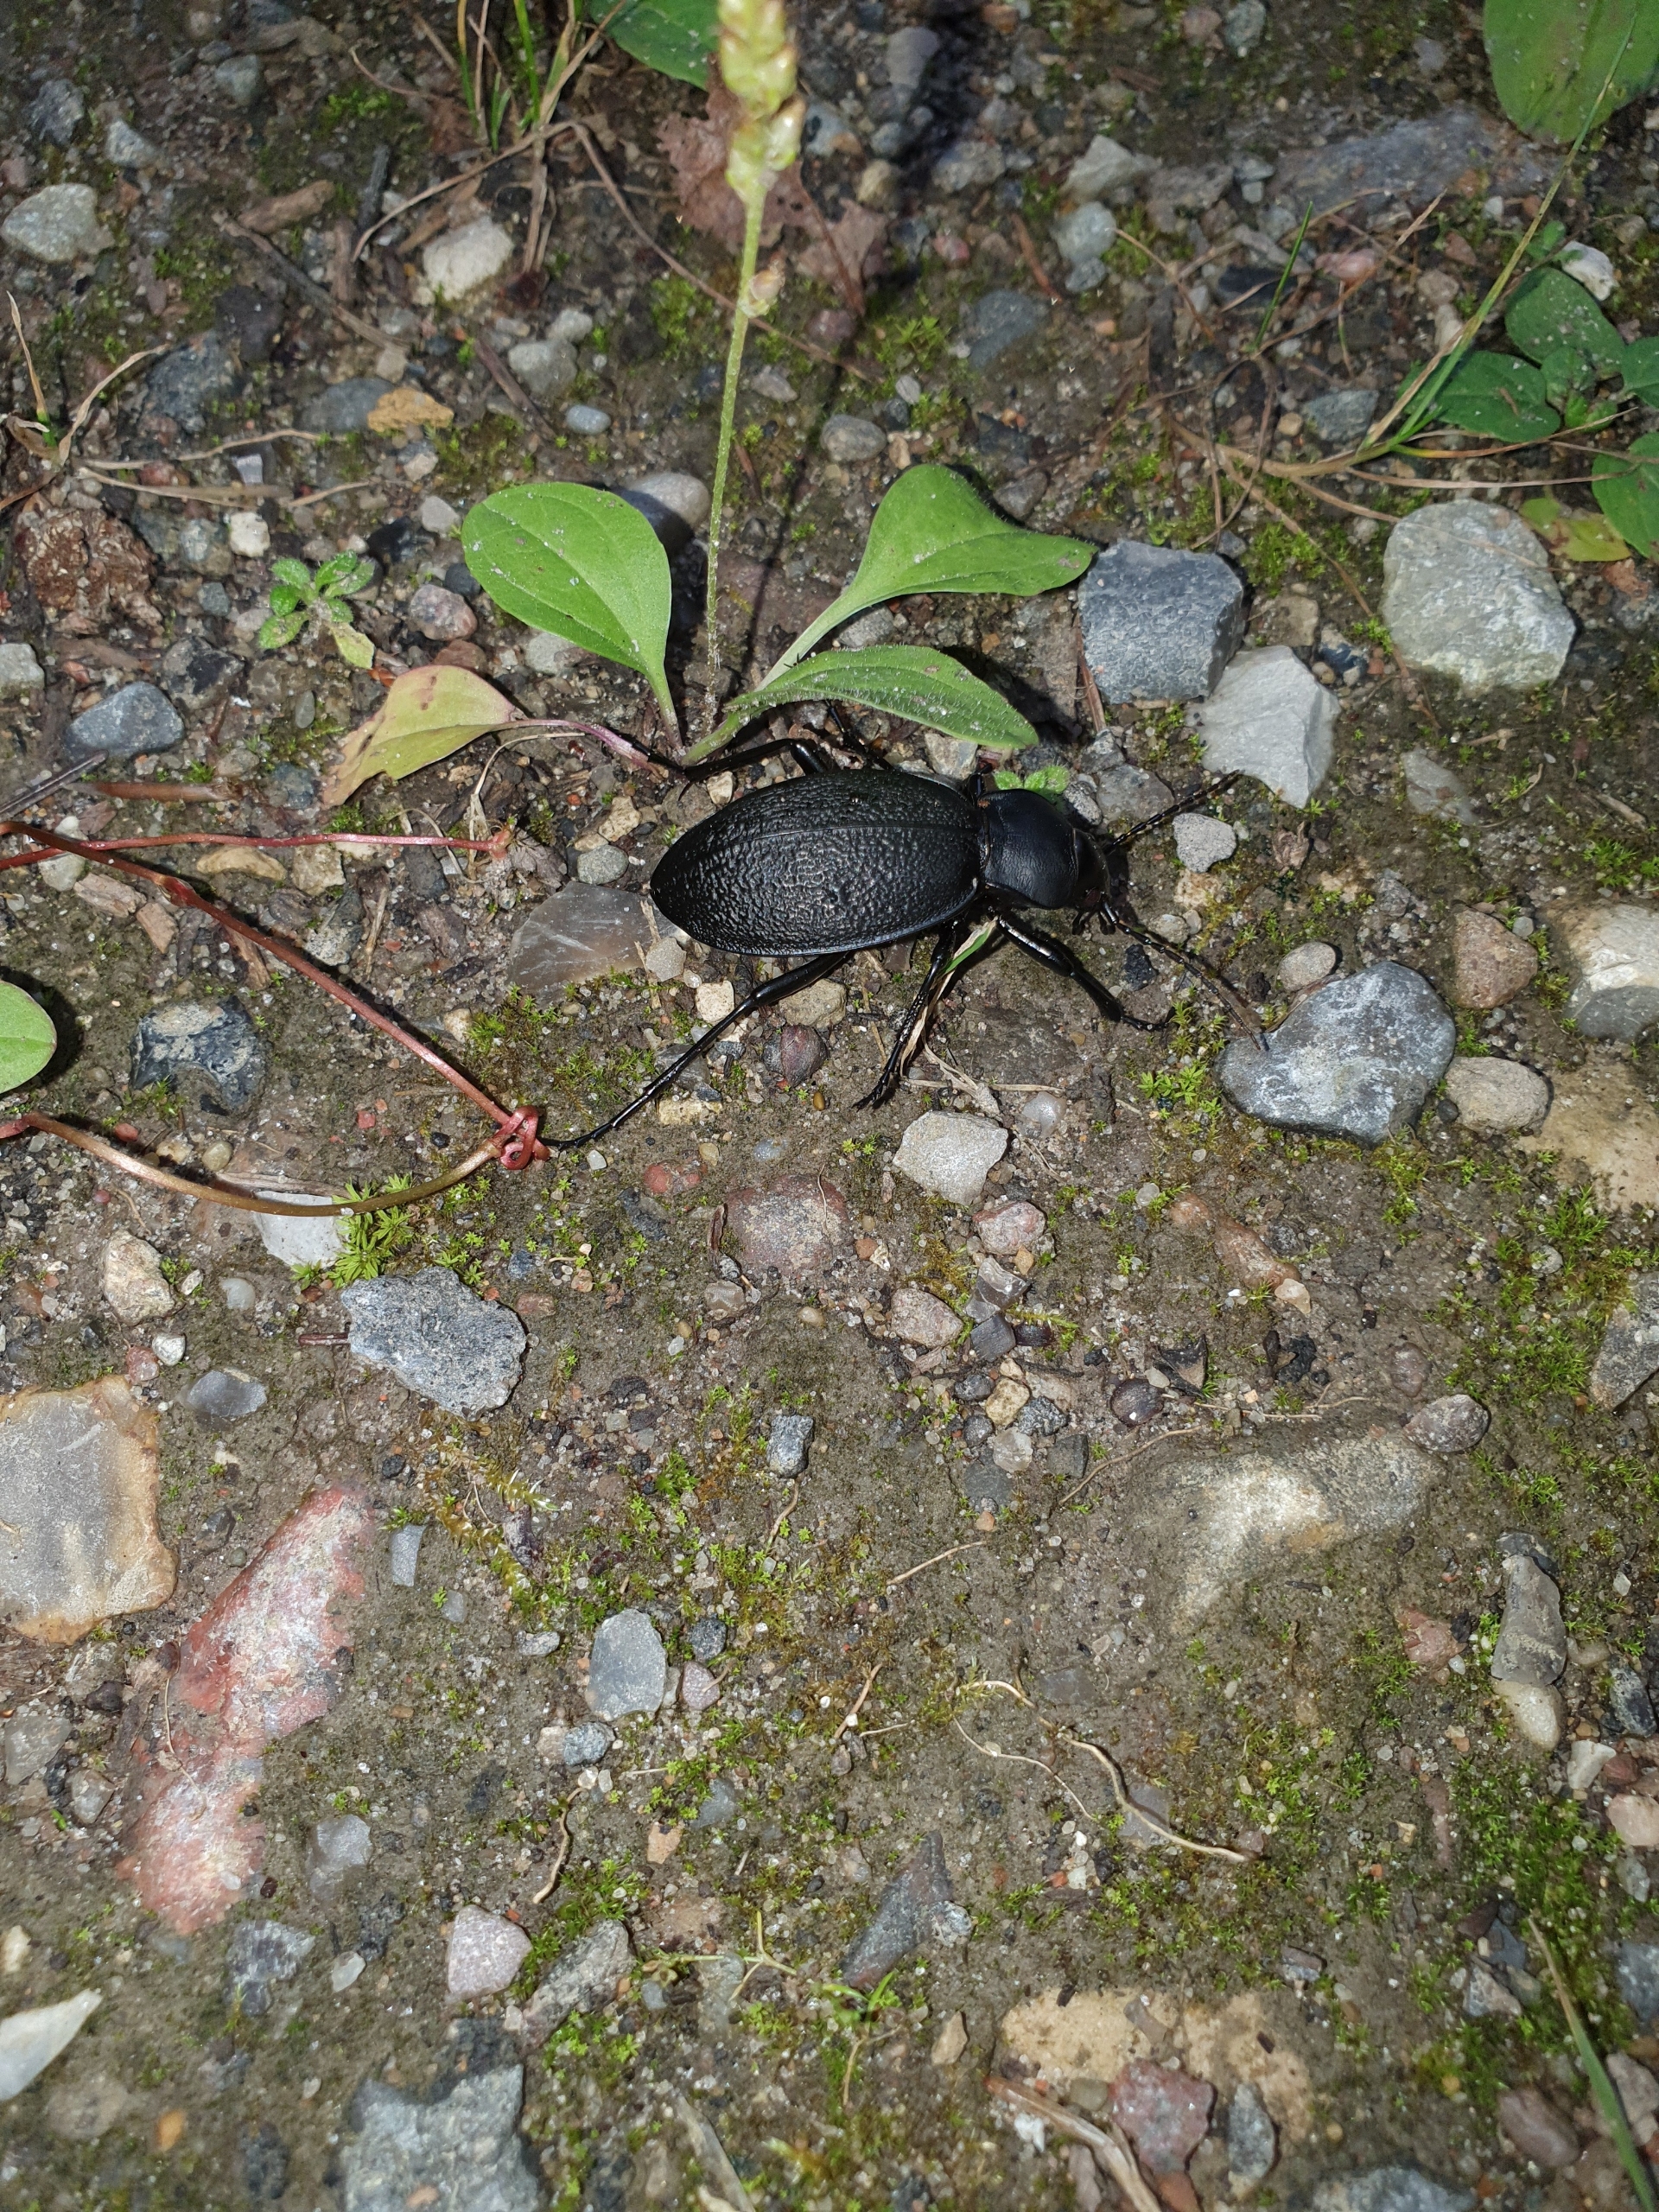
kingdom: Animalia
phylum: Arthropoda
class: Insecta
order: Coleoptera
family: Carabidae
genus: Carabus
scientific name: Carabus coriaceus
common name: Læderløber
